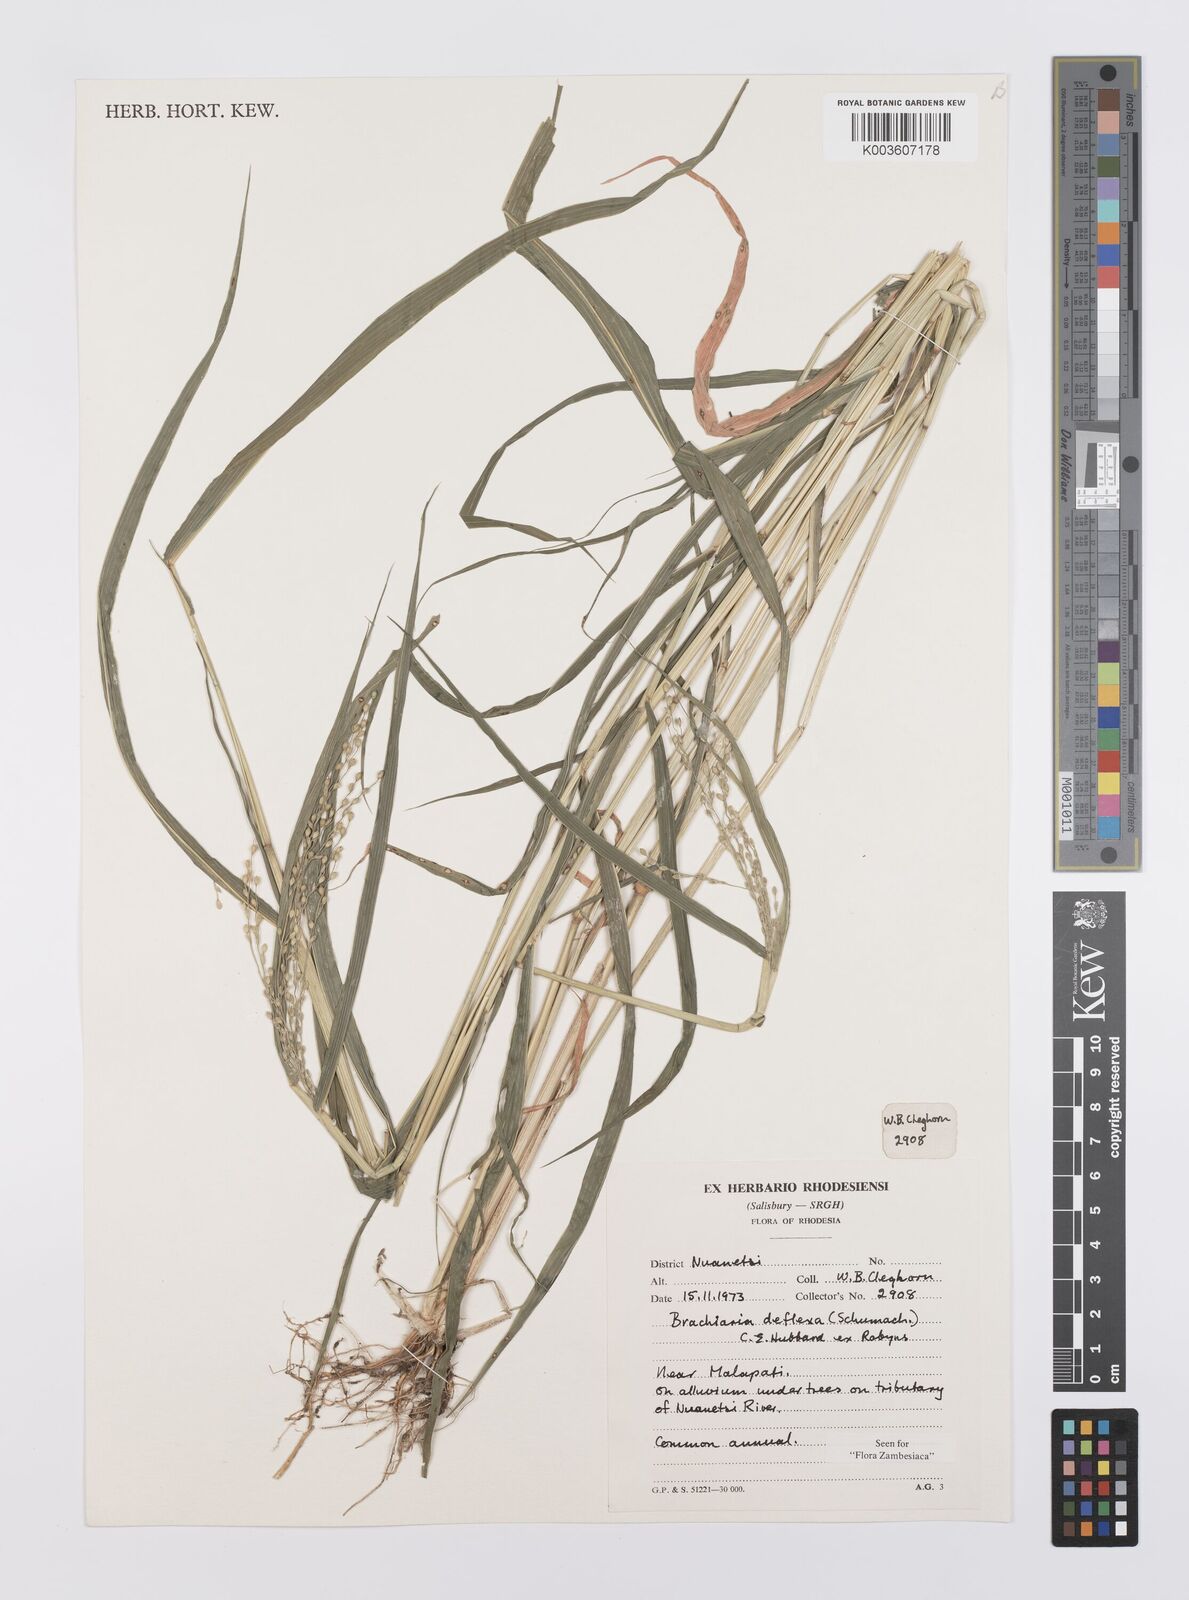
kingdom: Plantae
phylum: Tracheophyta
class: Liliopsida
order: Poales
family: Poaceae
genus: Urochloa
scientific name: Urochloa deflexa
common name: Guinea millet
